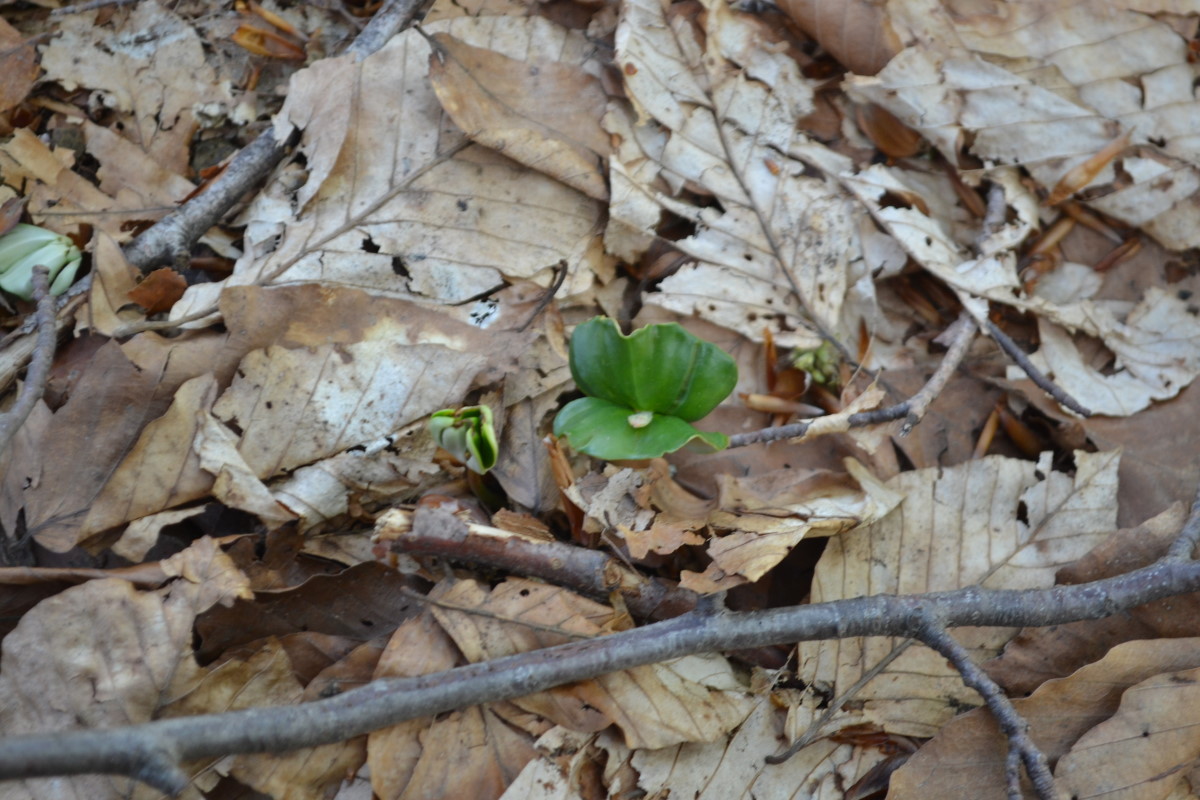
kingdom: Plantae
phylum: Tracheophyta
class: Magnoliopsida
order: Fagales
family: Fagaceae
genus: Fagus
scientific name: Fagus
